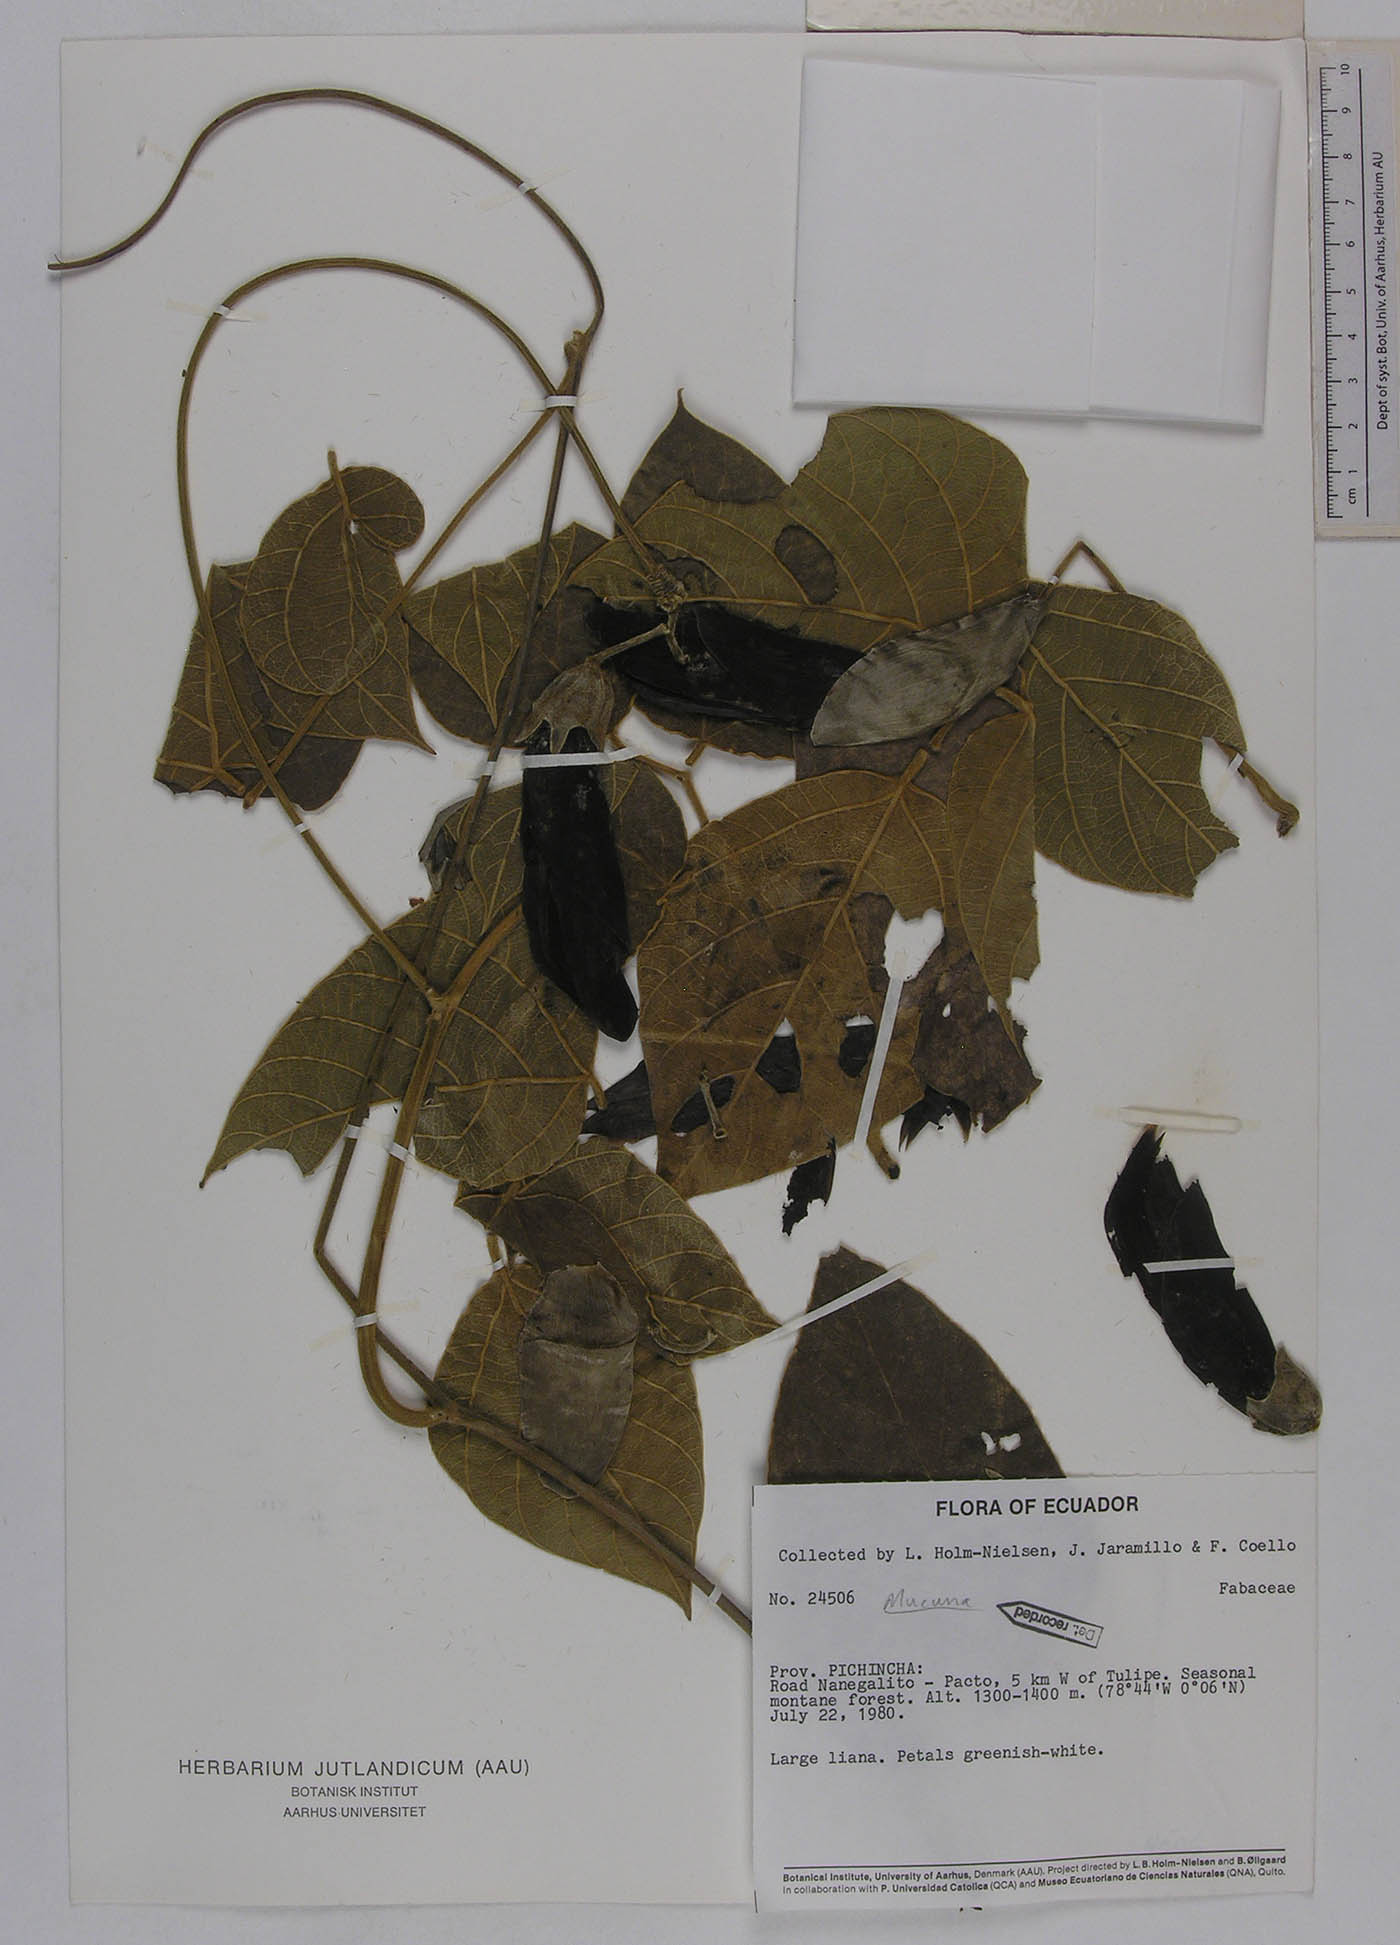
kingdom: Plantae
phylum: Tracheophyta
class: Magnoliopsida
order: Fabales
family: Fabaceae
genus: Mucuna
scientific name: Mucuna klitgaardiae
